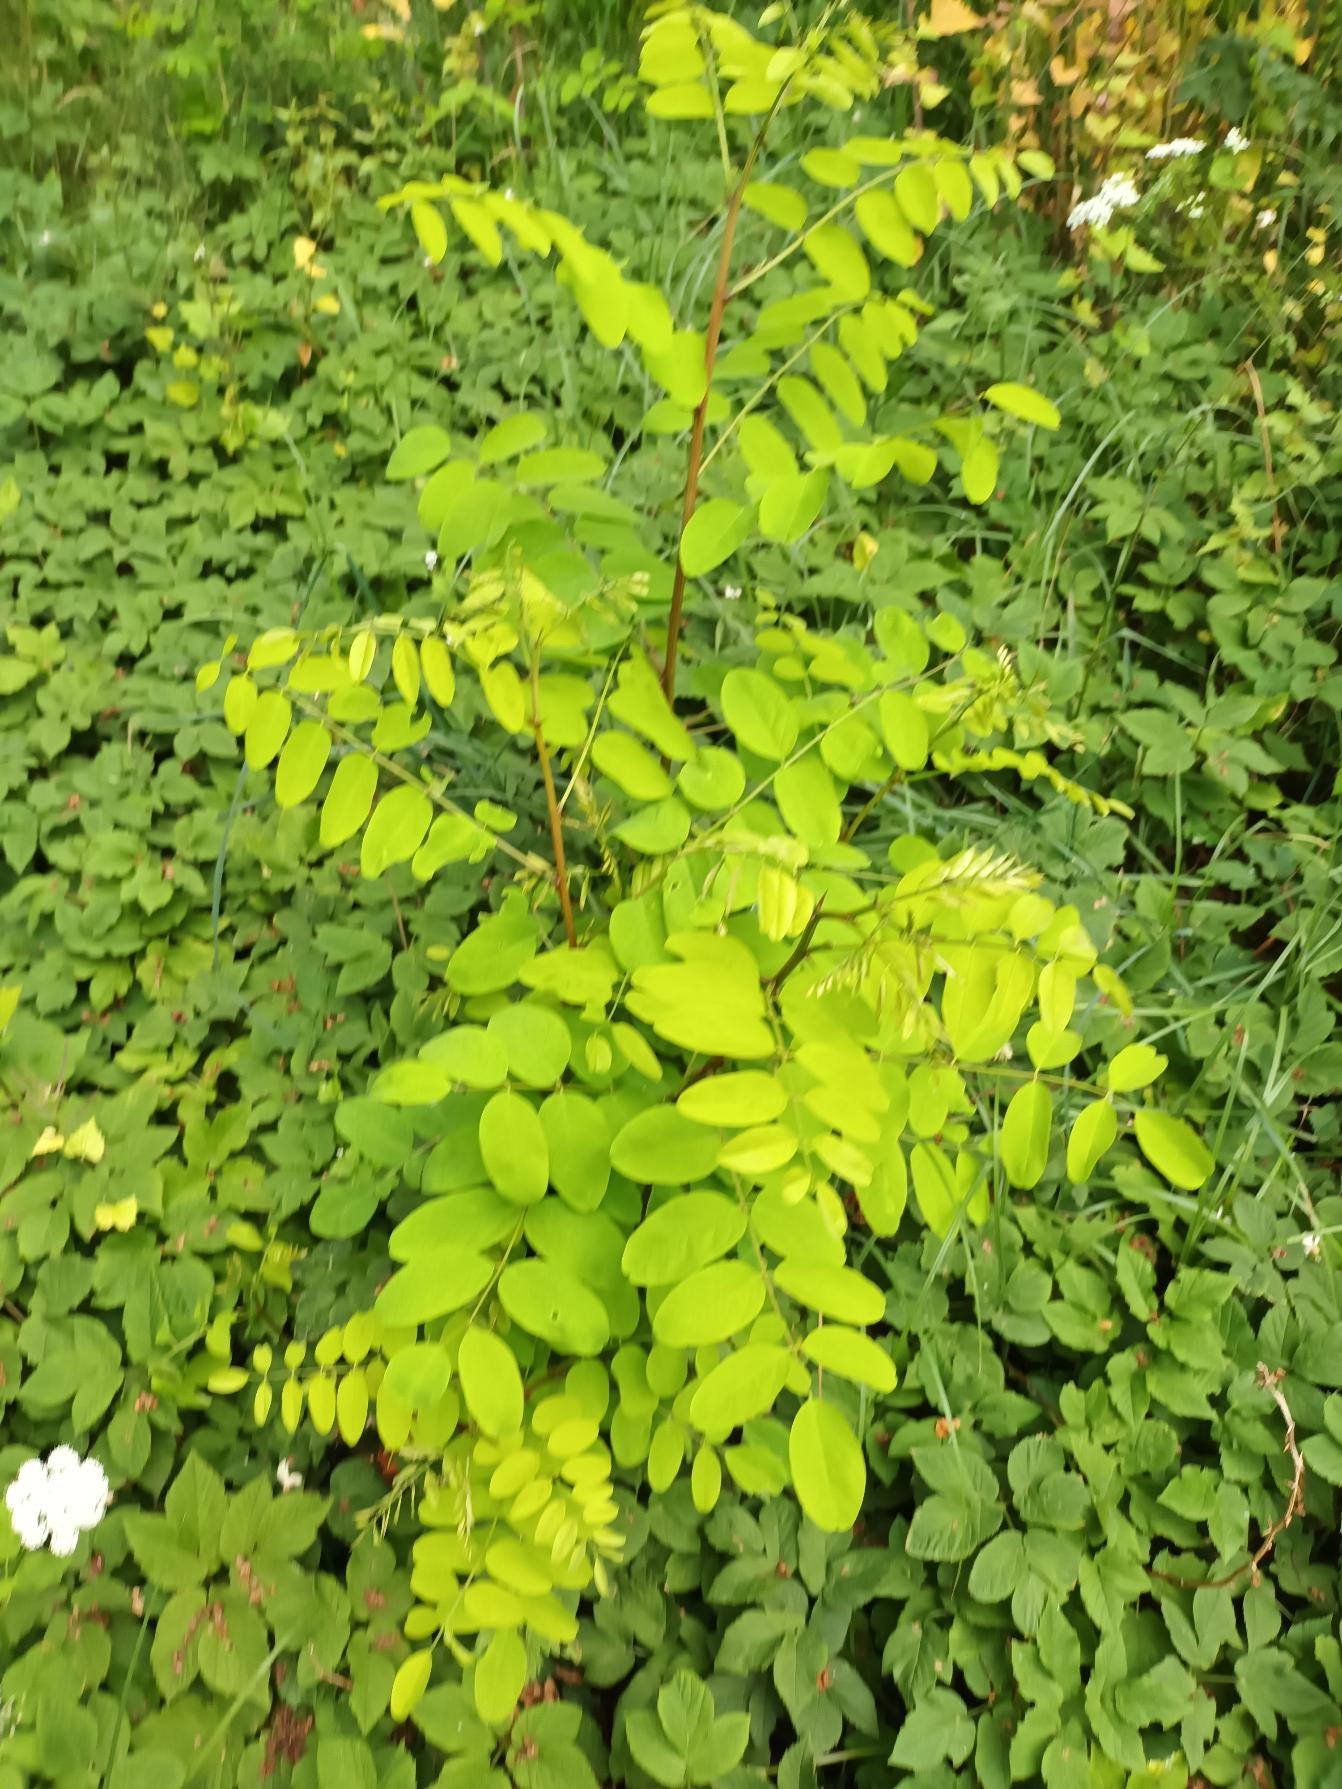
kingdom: Plantae
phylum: Tracheophyta
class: Magnoliopsida
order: Fabales
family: Fabaceae
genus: Robinia
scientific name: Robinia pseudoacacia
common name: Robinie
